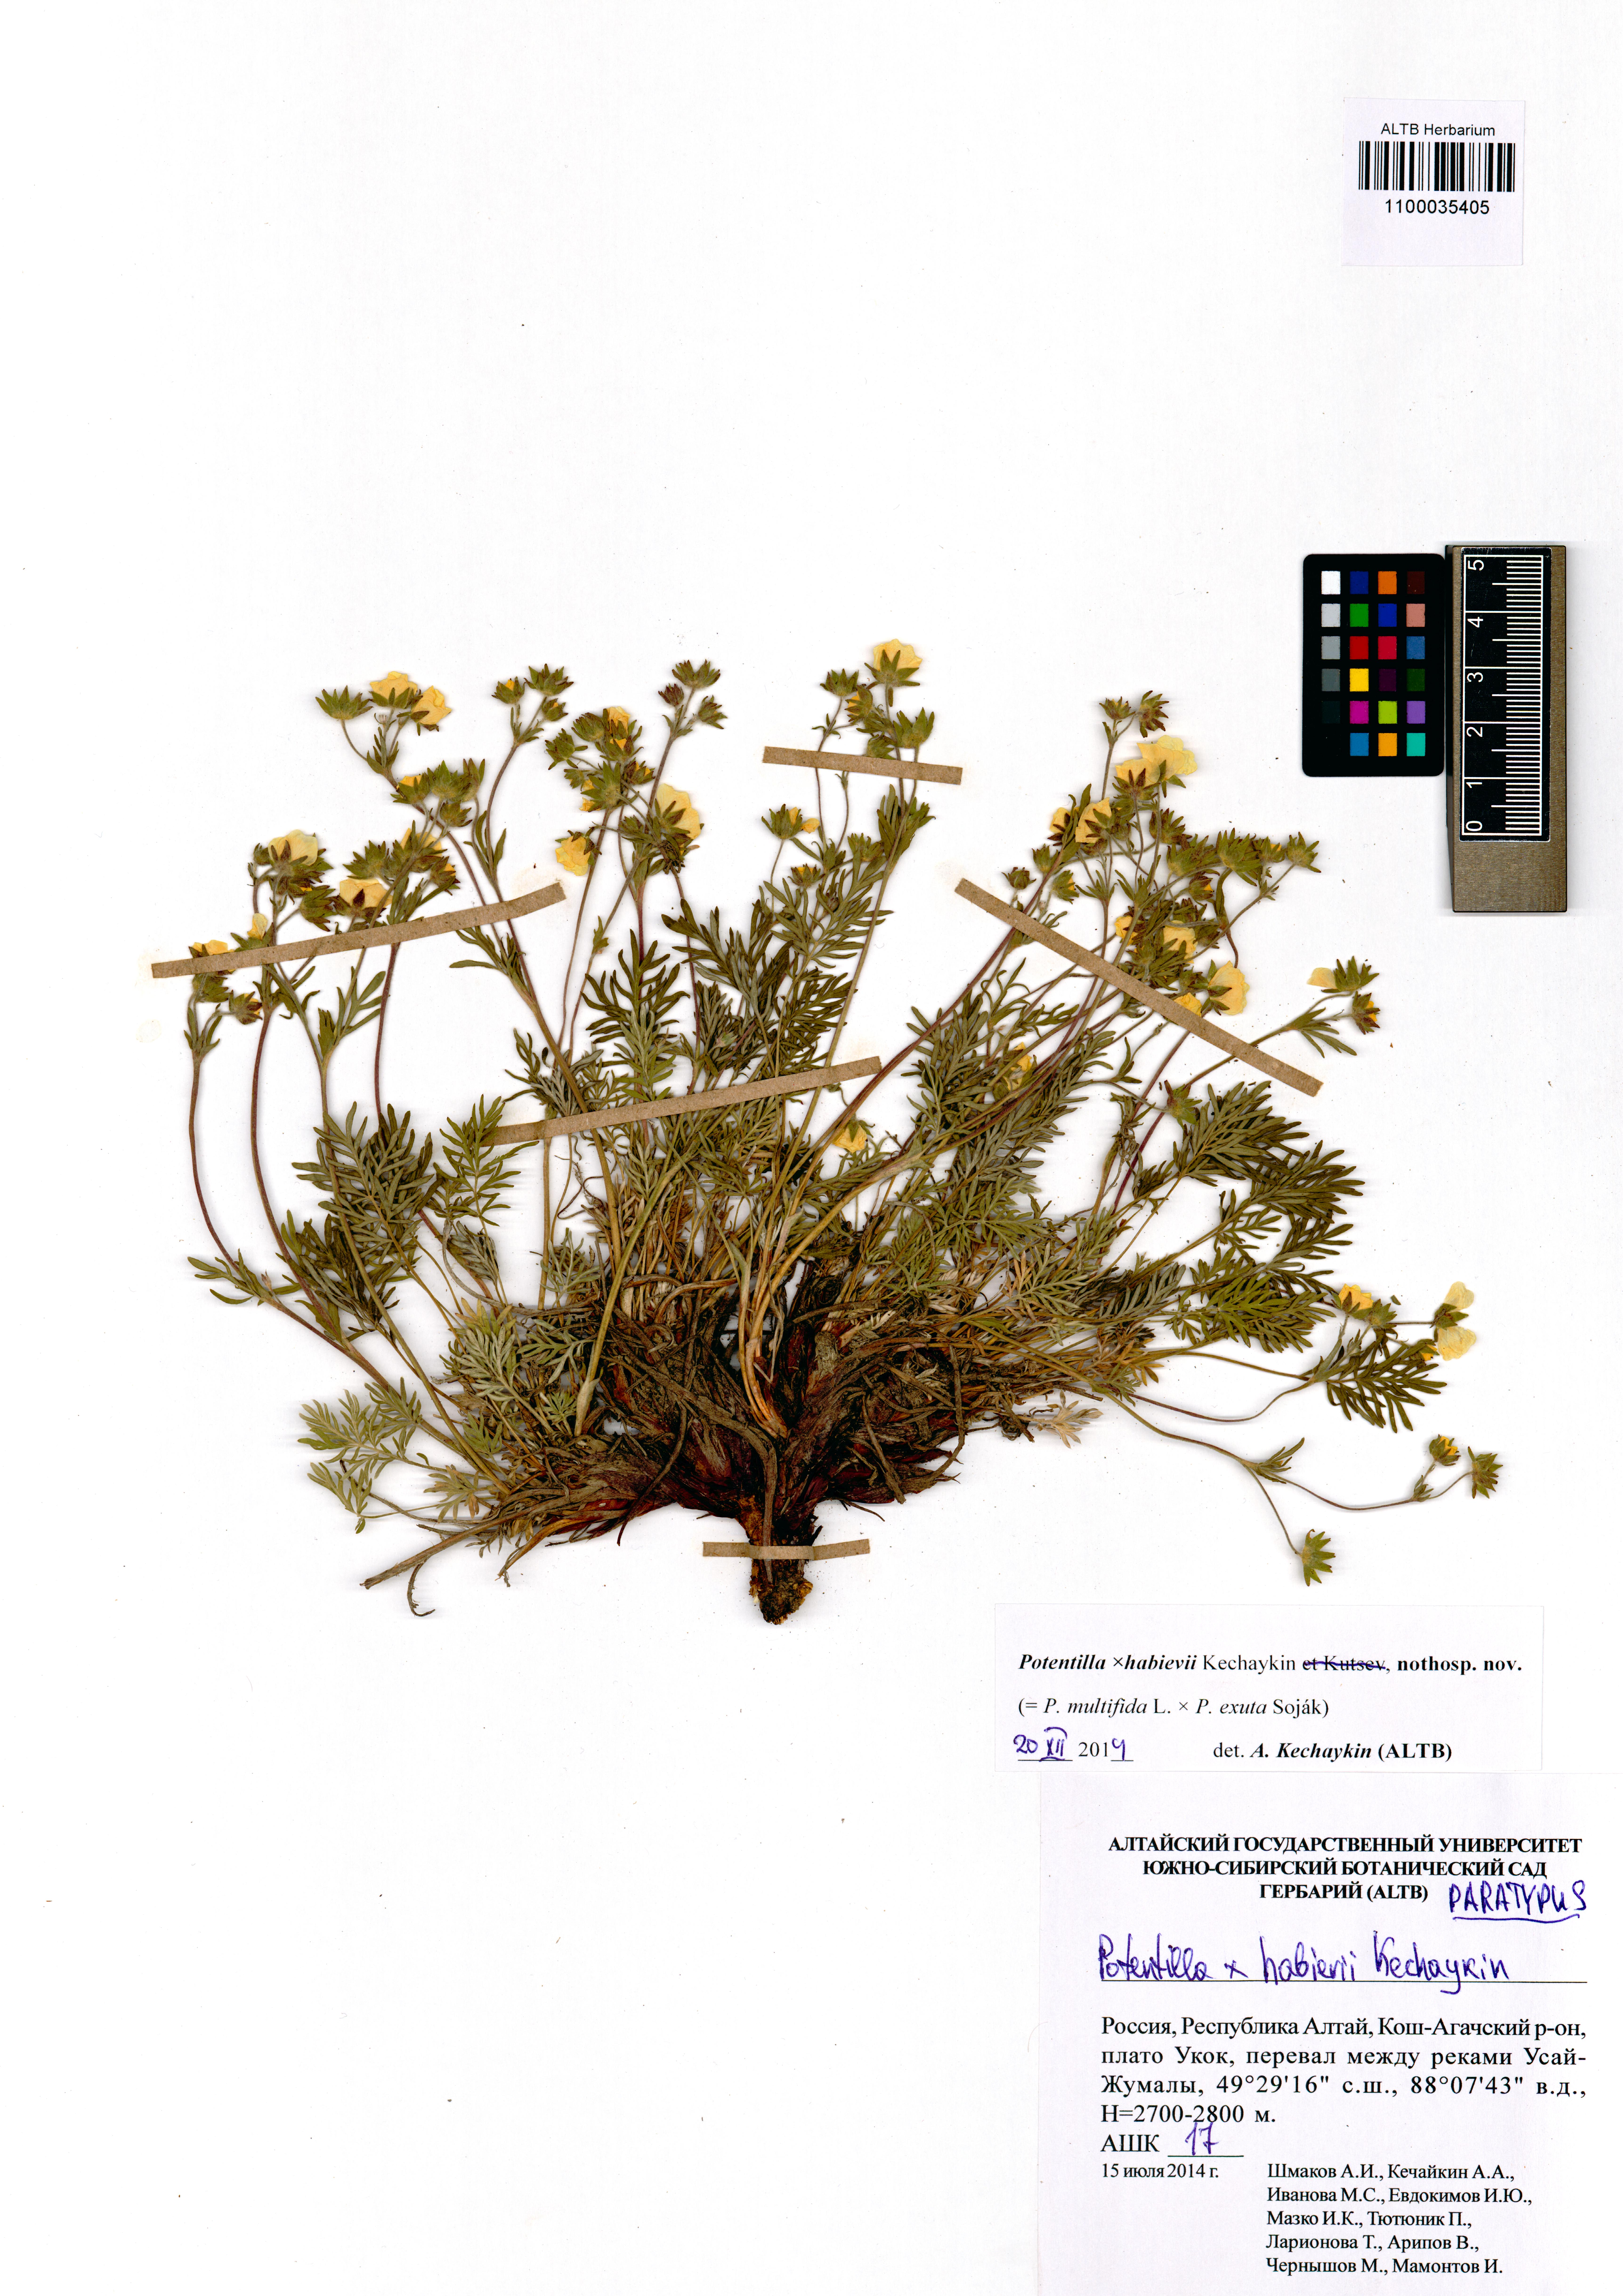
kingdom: Plantae
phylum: Tracheophyta
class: Magnoliopsida
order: Rosales
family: Rosaceae
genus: Potentilla
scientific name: Potentilla habievii
